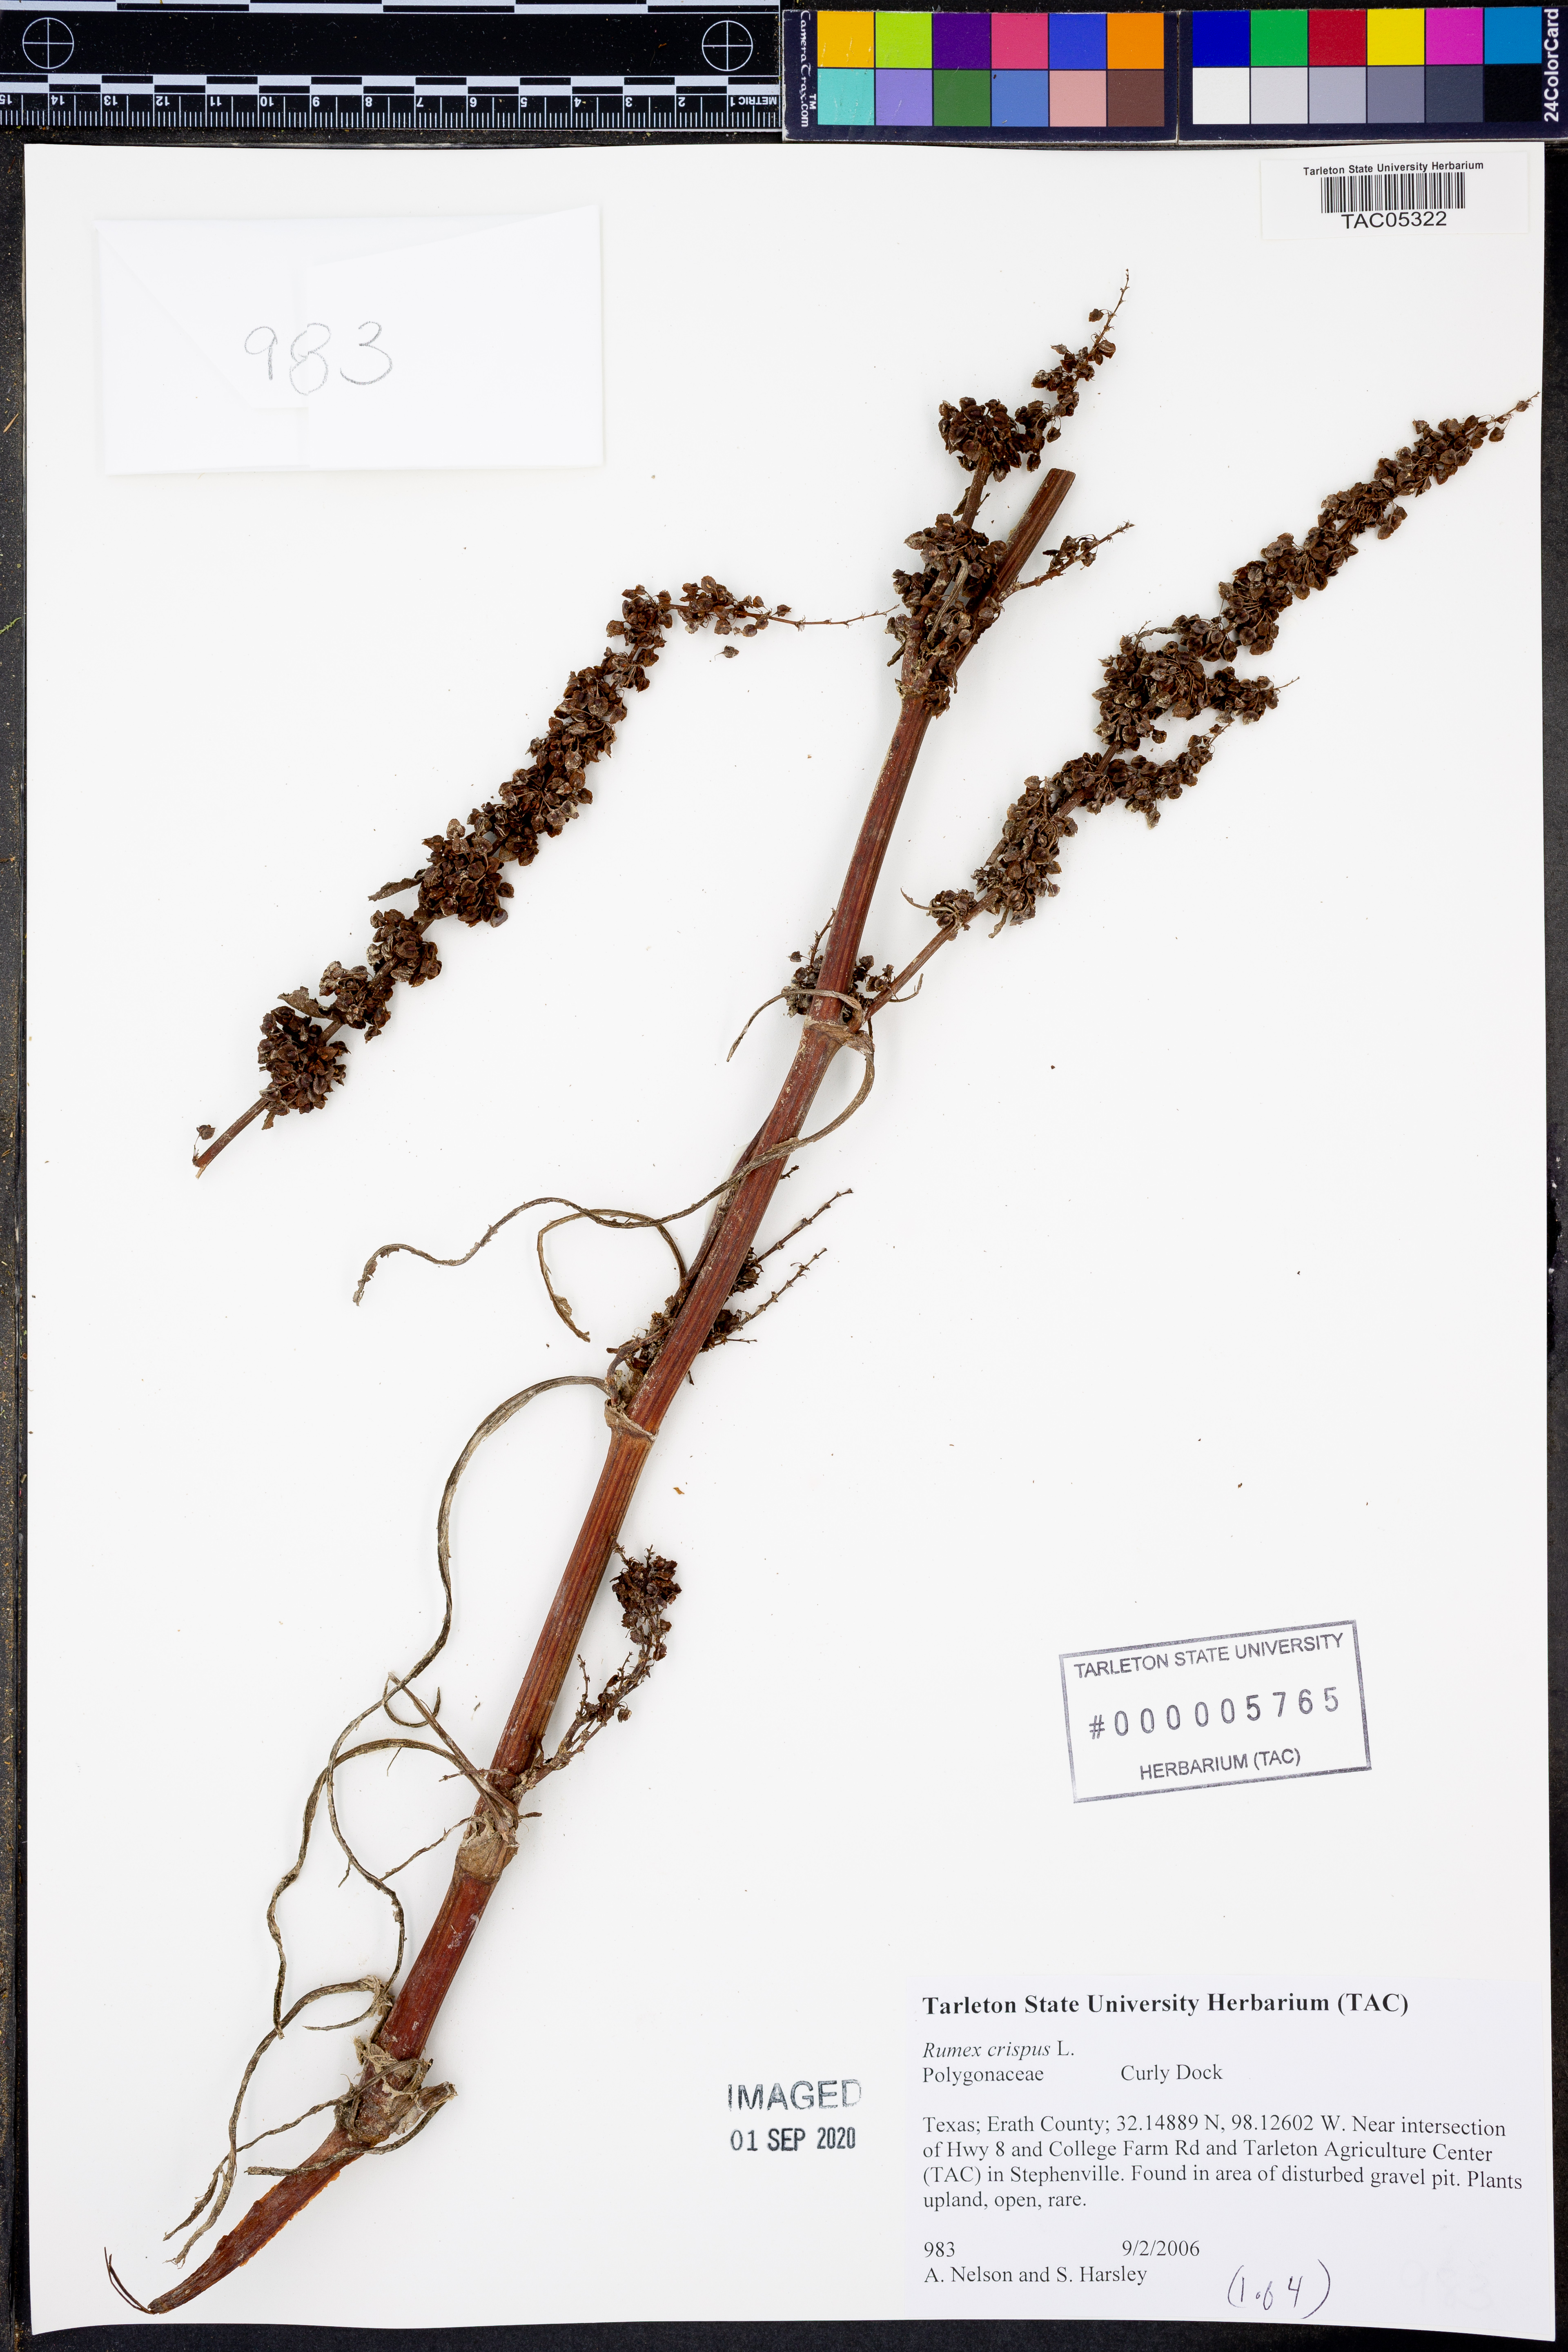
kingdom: Plantae
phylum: Tracheophyta
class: Magnoliopsida
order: Caryophyllales
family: Polygonaceae
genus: Rumex
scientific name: Rumex crispus
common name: Curled dock
